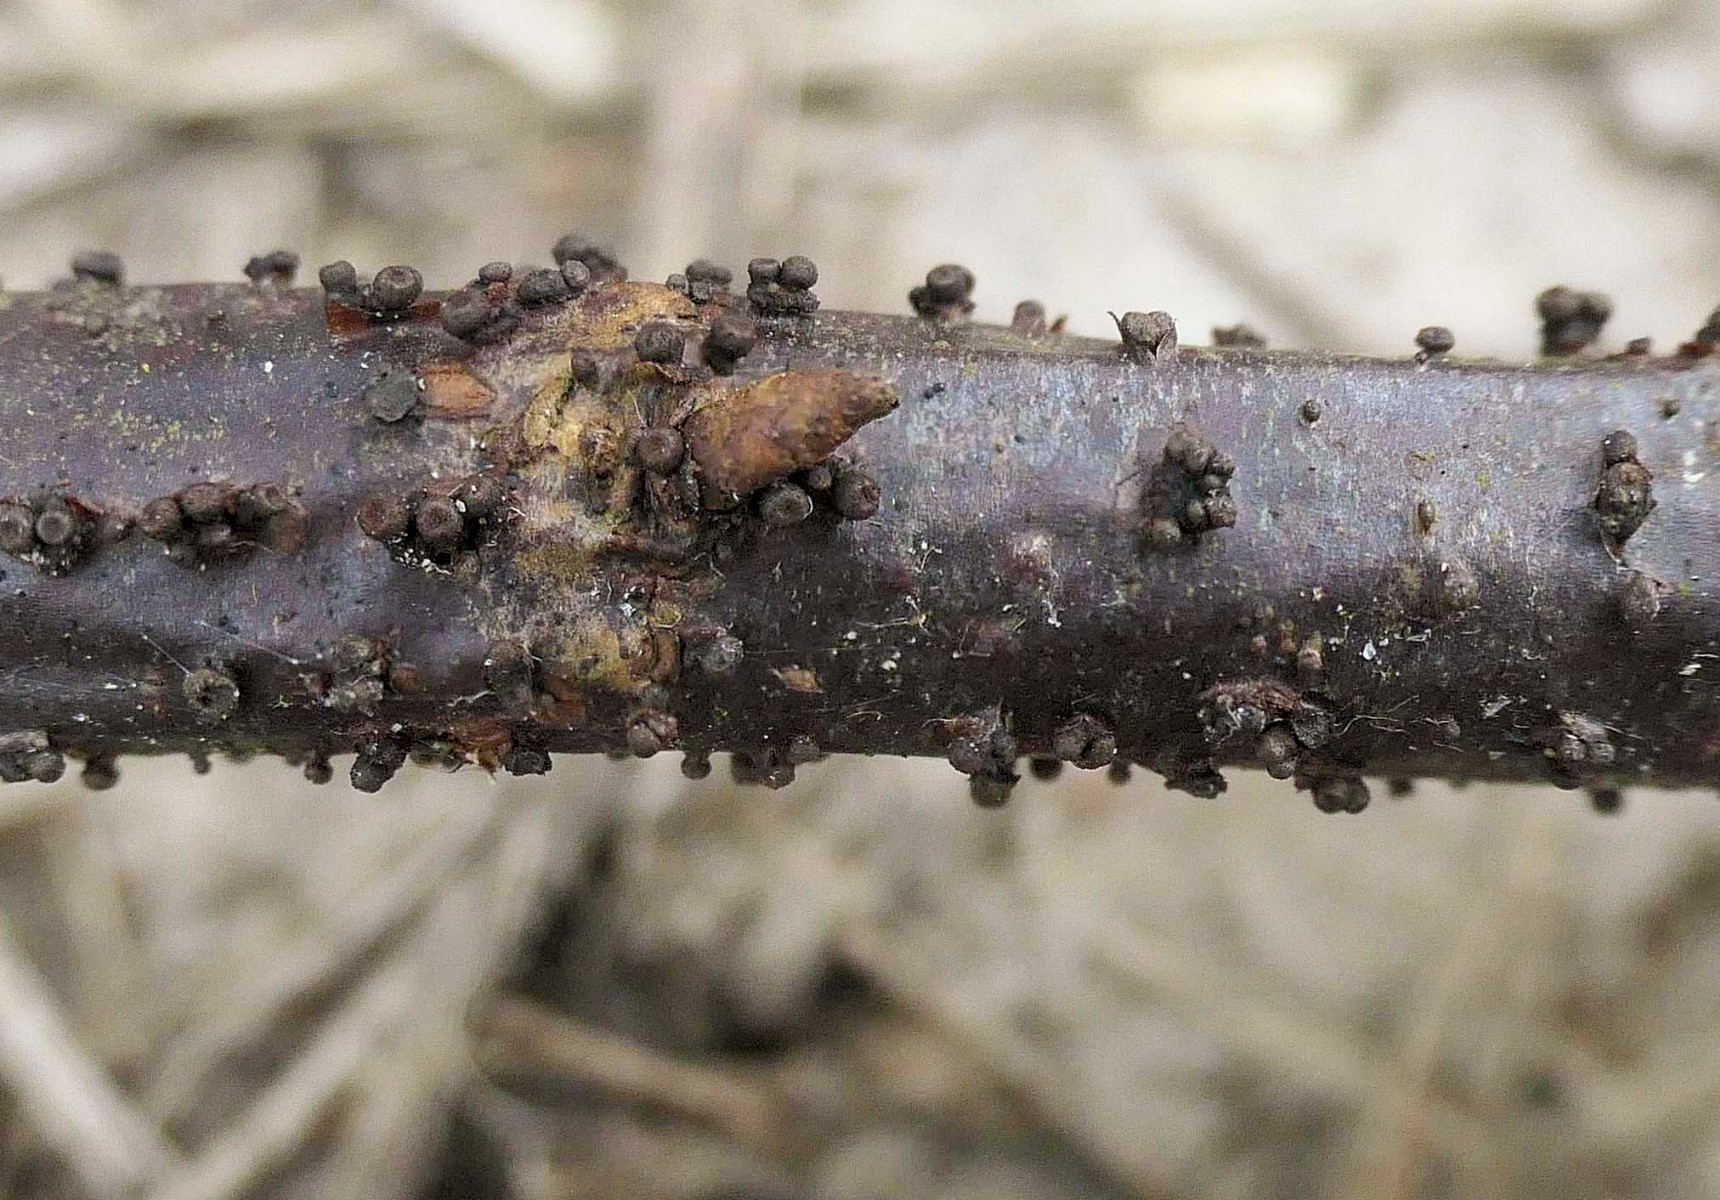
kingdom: Fungi
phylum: Ascomycota
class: Leotiomycetes
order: Helotiales
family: Godroniaceae
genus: Godronia
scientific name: Godronia ribis
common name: ribs-urneskive
